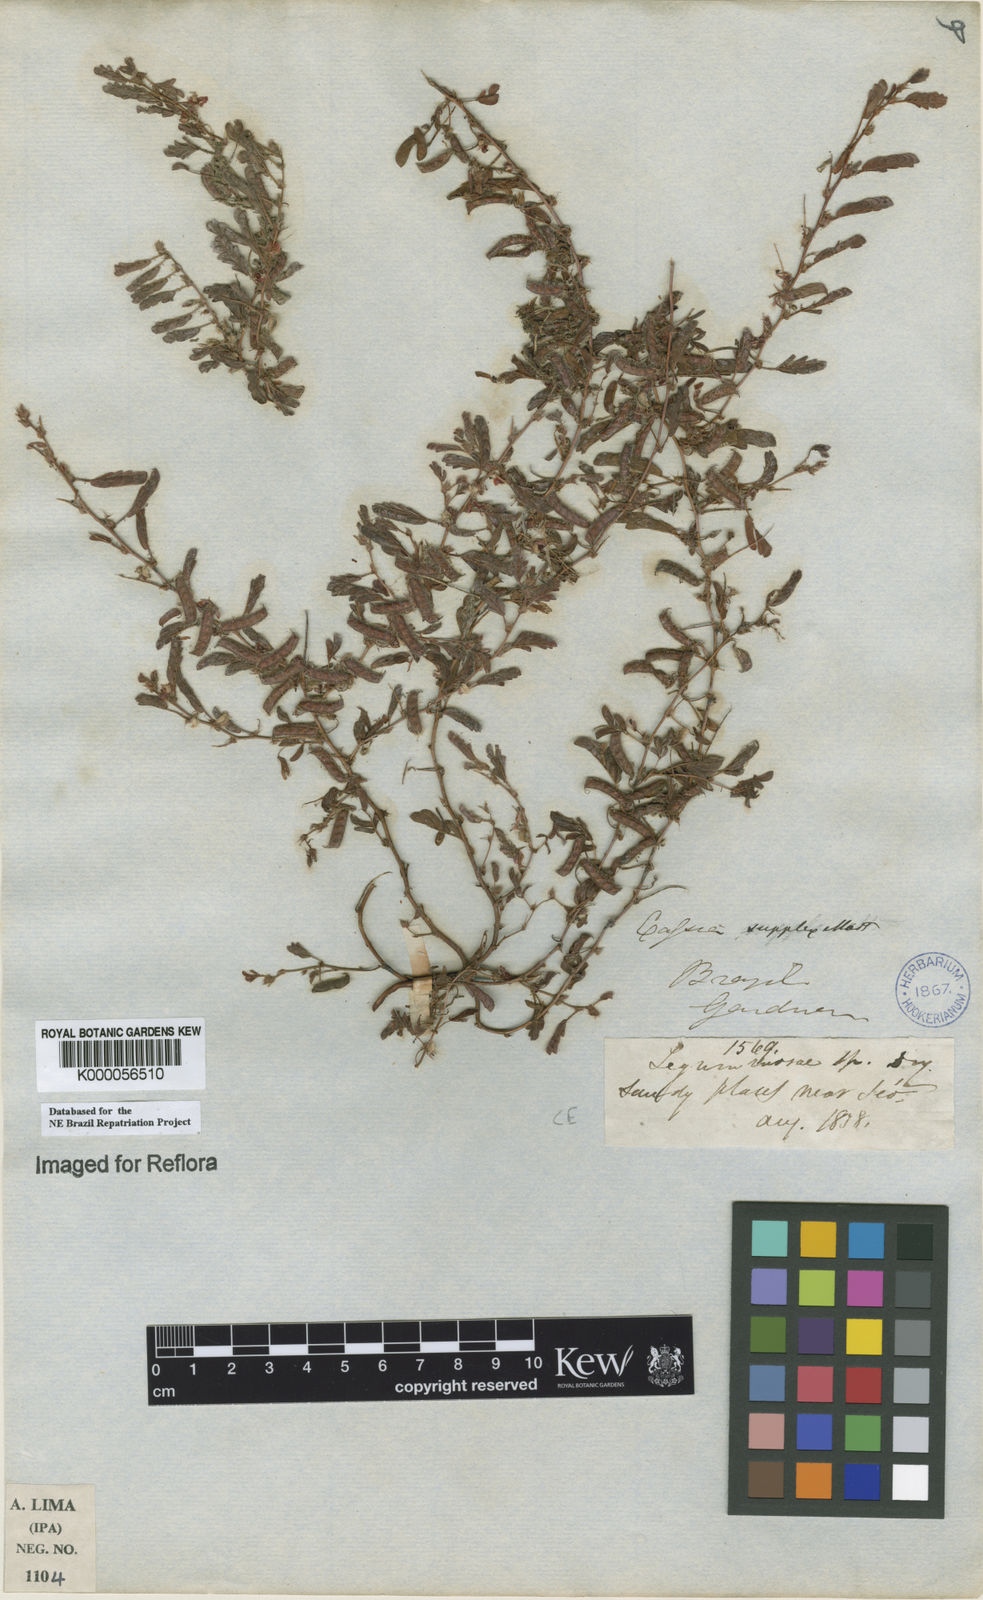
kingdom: Plantae
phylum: Tracheophyta
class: Magnoliopsida
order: Fabales
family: Fabaceae
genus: Chamaecrista
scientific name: Chamaecrista supplex
